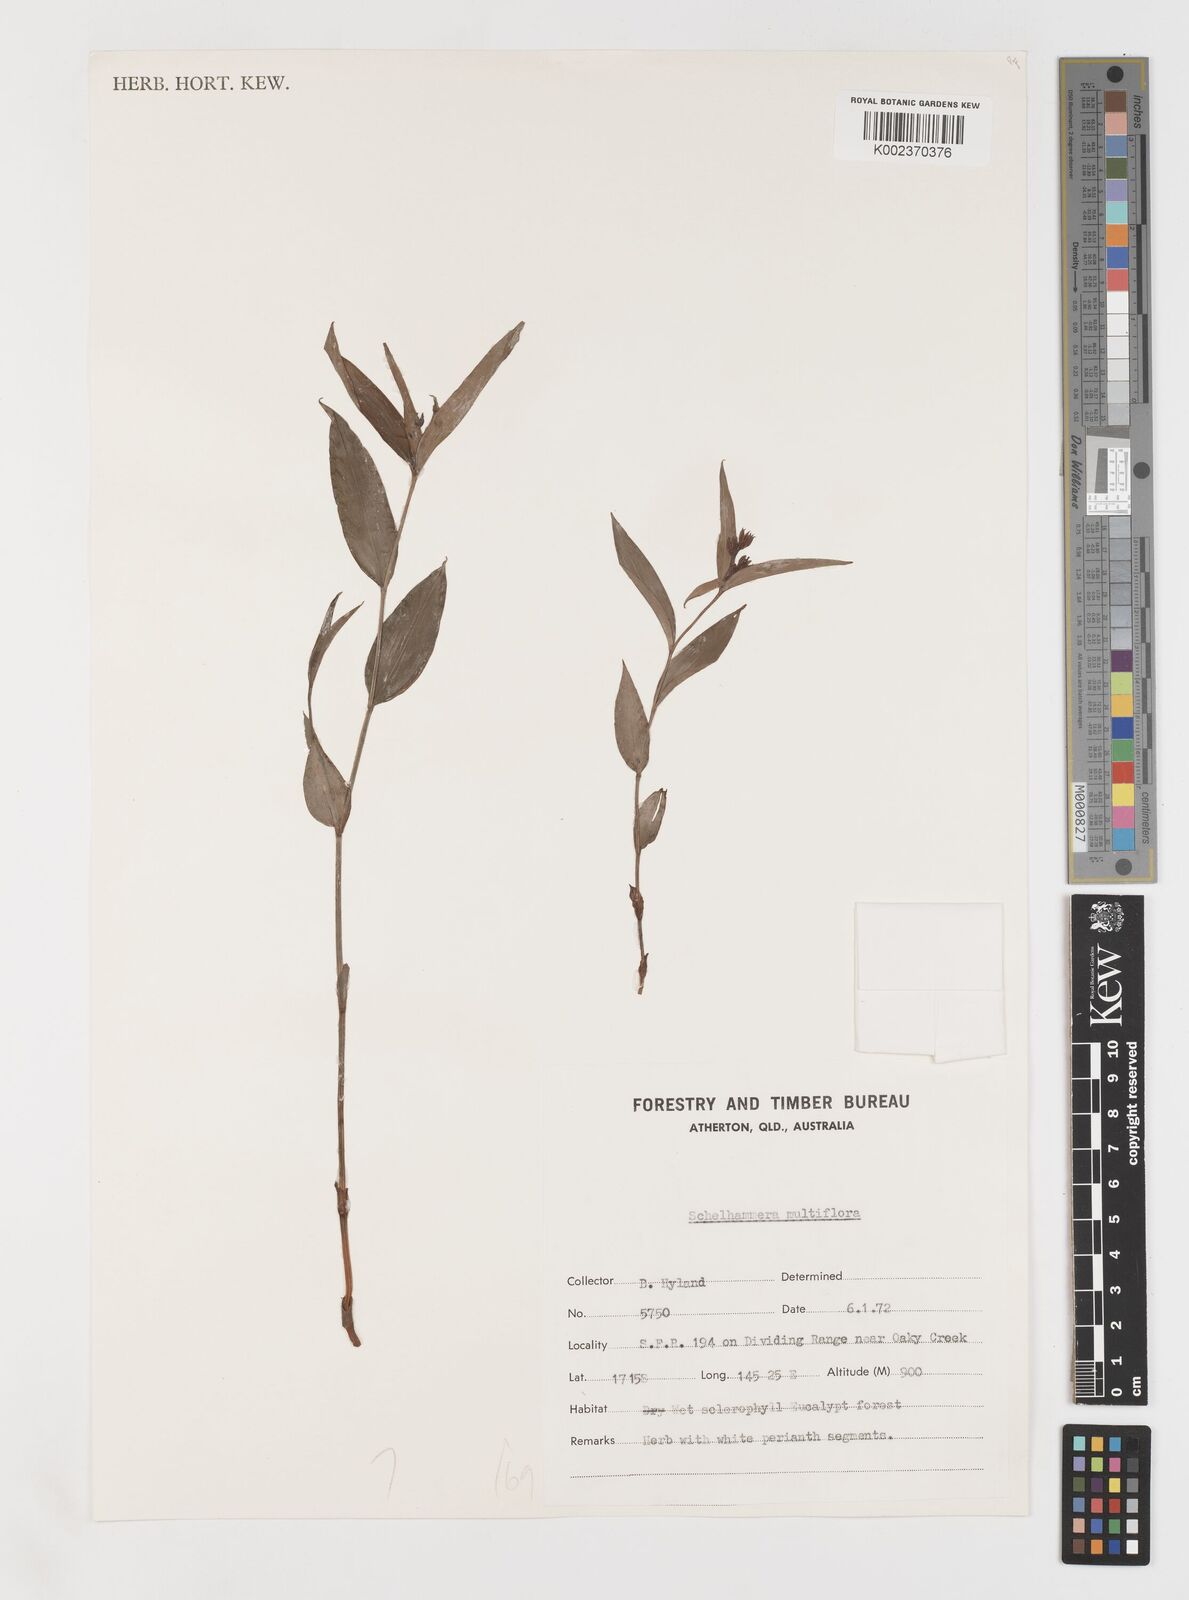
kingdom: Plantae
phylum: Tracheophyta
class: Liliopsida
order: Liliales
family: Colchicaceae
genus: Schelhammera
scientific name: Schelhammera multiflora
